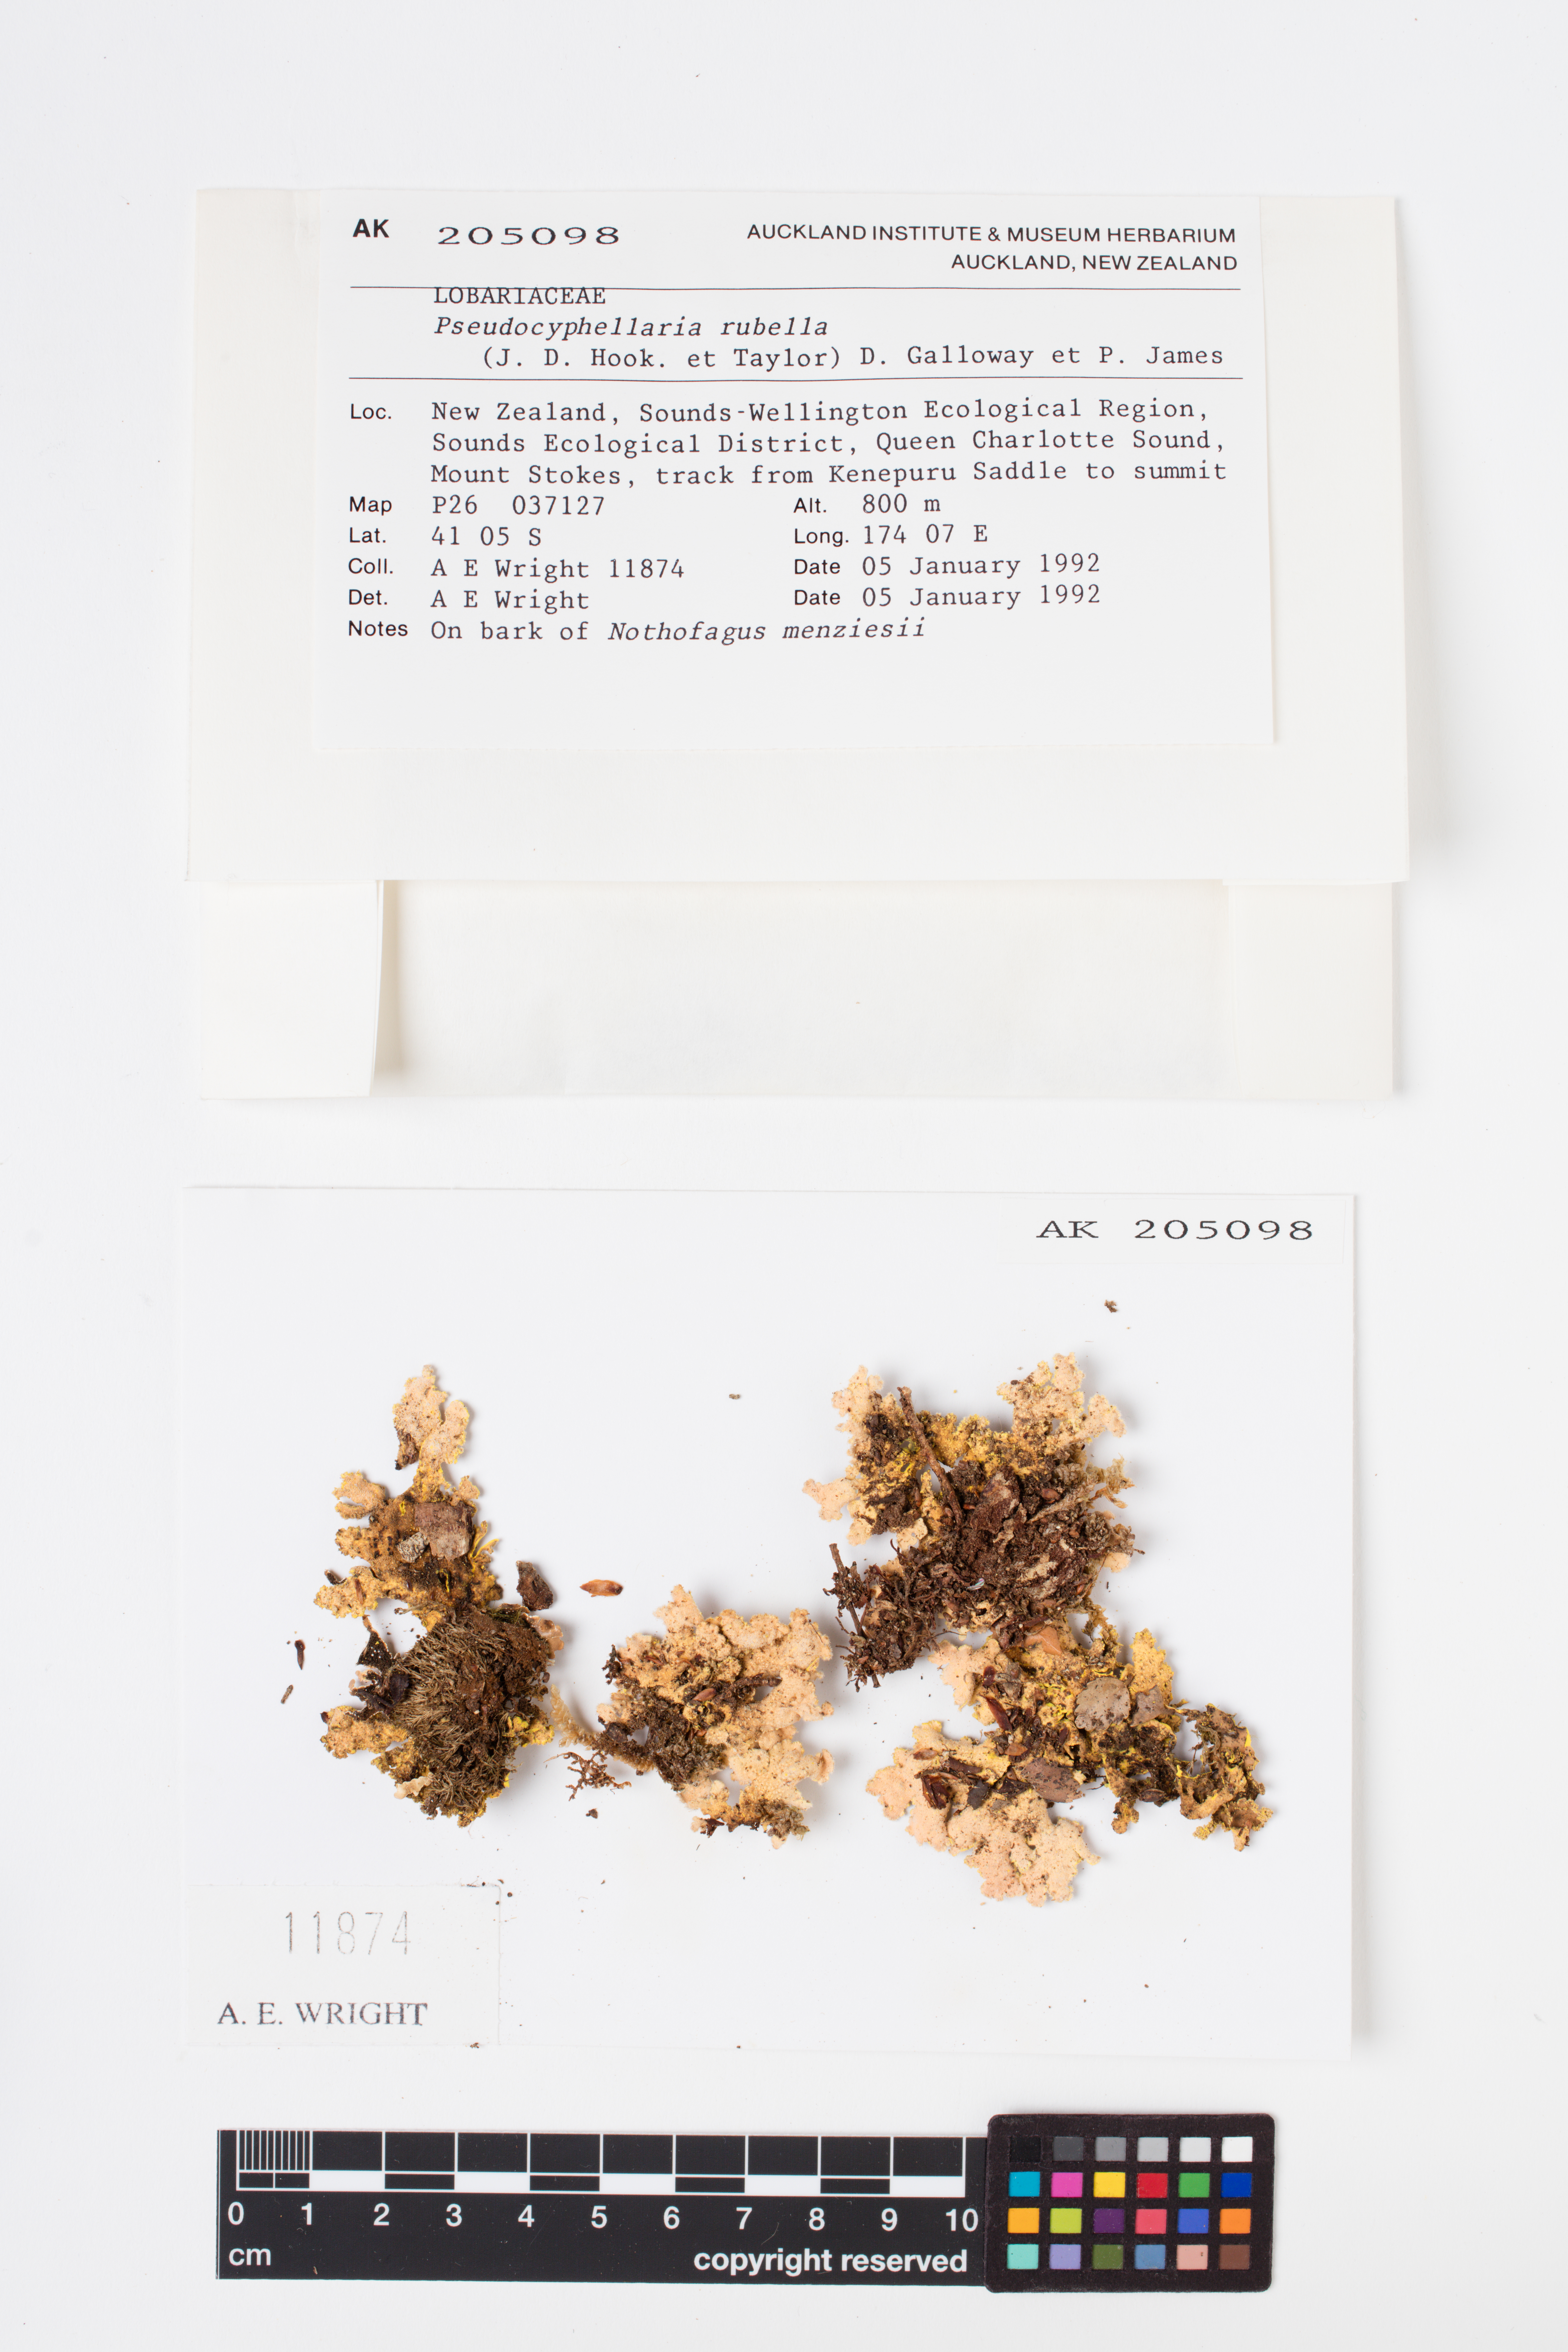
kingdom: Fungi
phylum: Ascomycota
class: Lecanoromycetes
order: Peltigerales
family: Lobariaceae
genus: Pseudocyphellaria
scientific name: Pseudocyphellaria rubella
